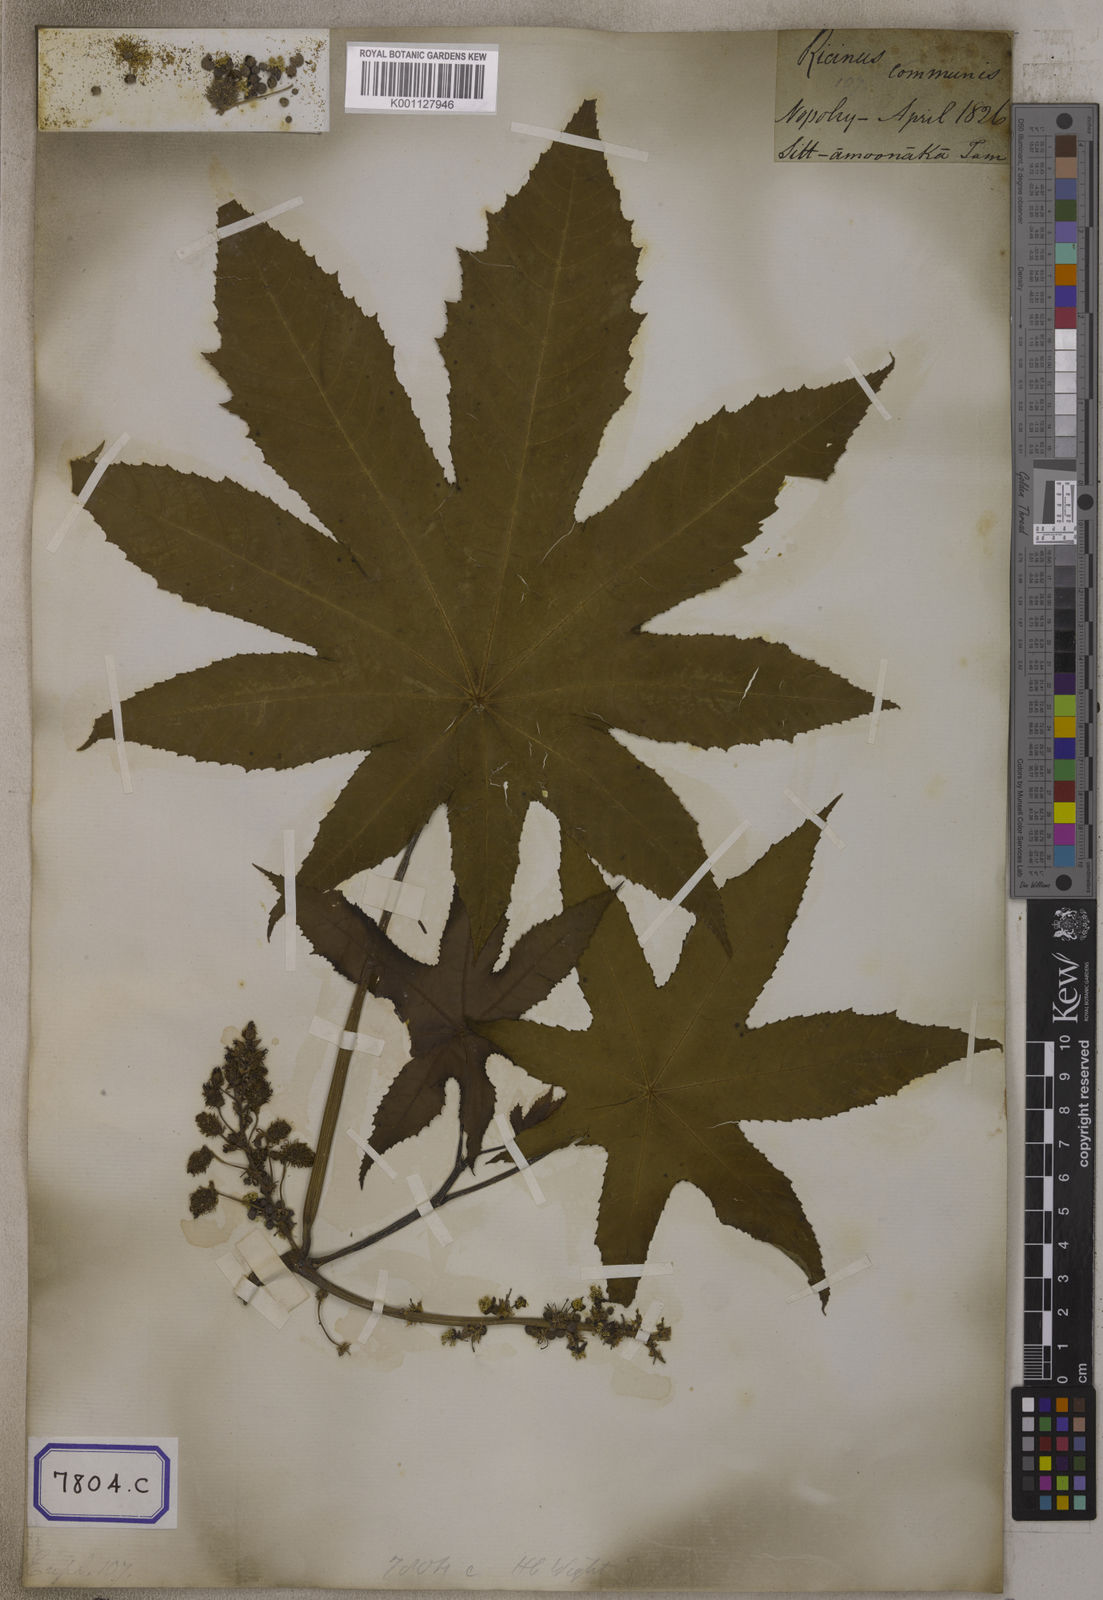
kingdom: Plantae
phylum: Tracheophyta
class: Magnoliopsida
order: Malpighiales
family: Euphorbiaceae
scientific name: Euphorbiaceae
